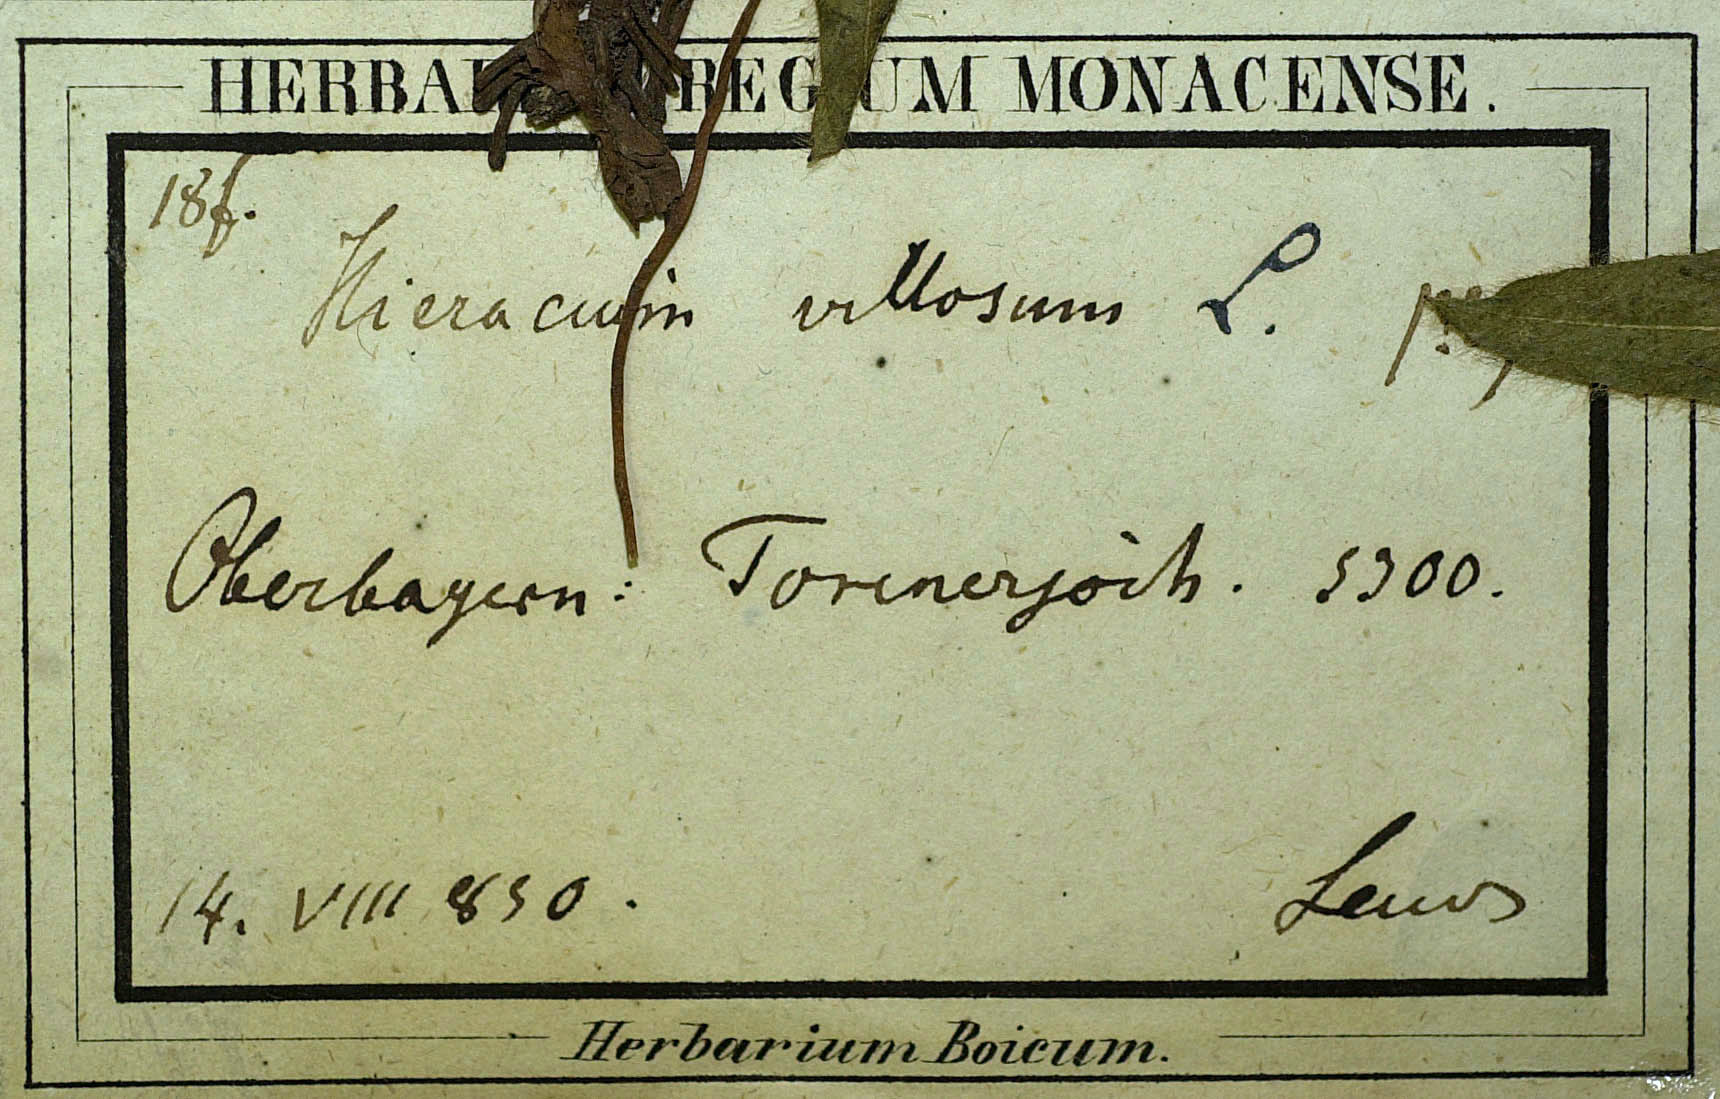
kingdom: Plantae
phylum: Tracheophyta
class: Magnoliopsida
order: Asterales
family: Asteraceae
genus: Hieracium
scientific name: Hieracium pilosum
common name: Fimbriate-pitted hawkweed
